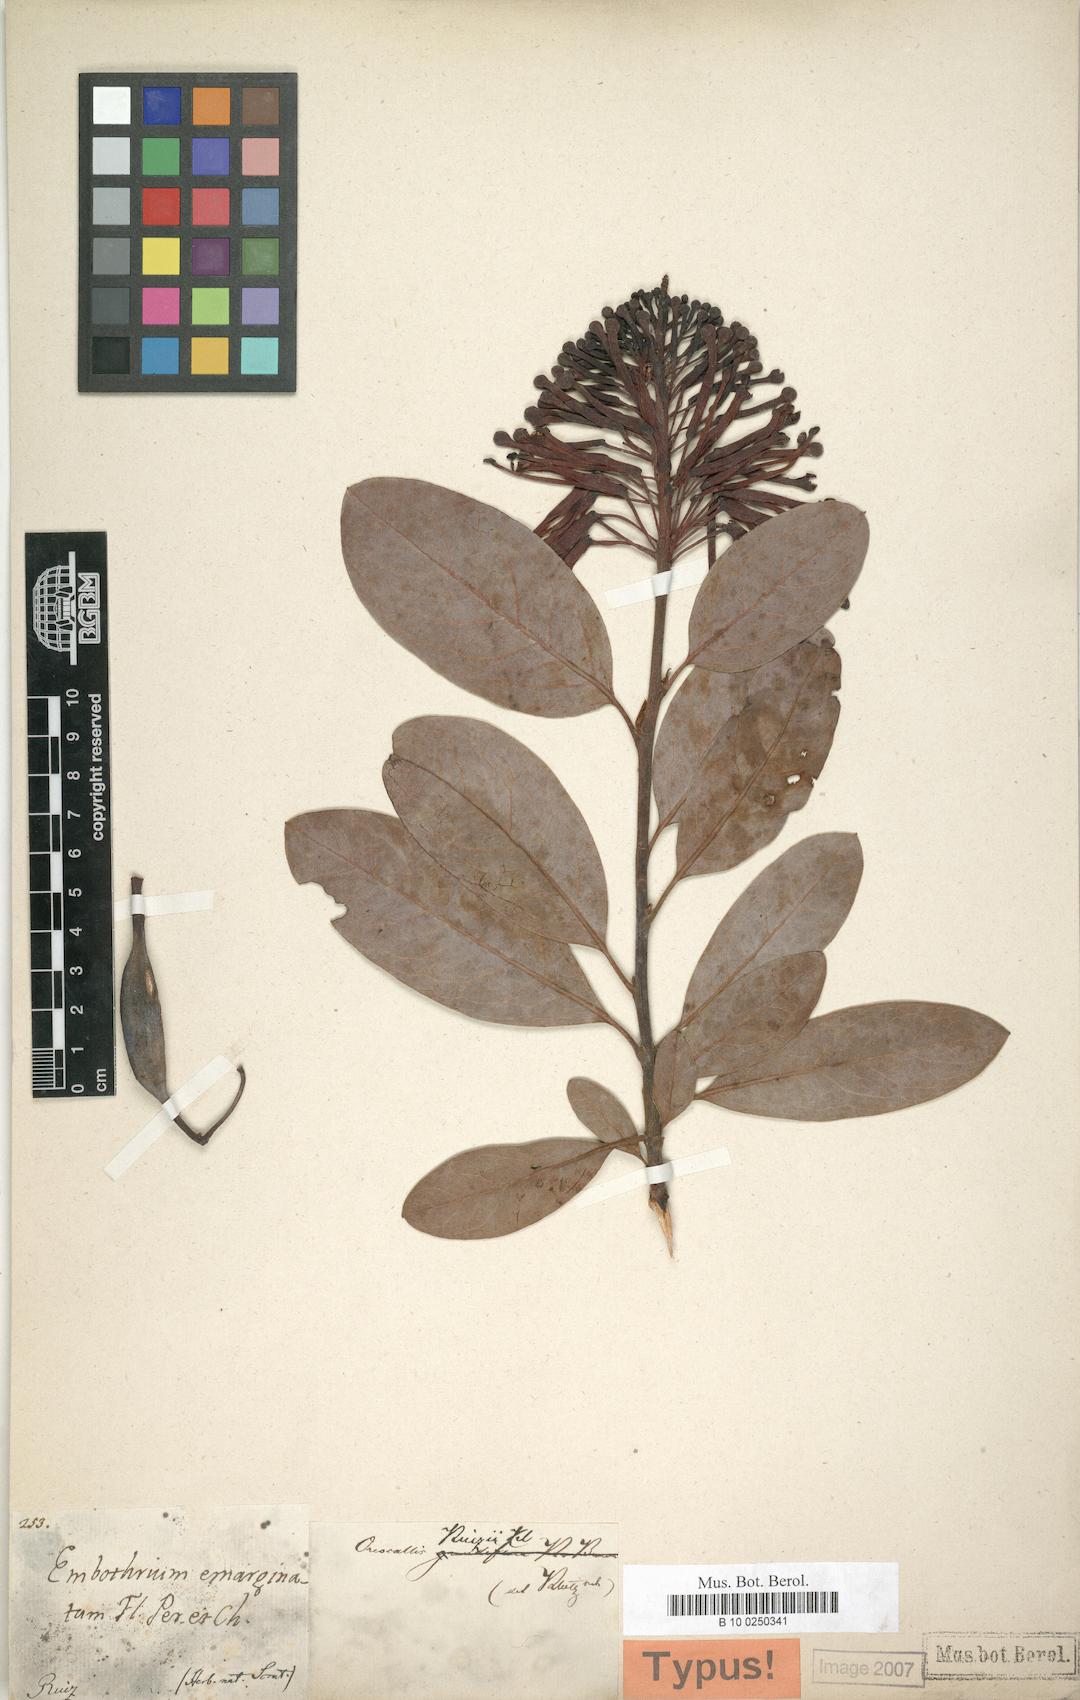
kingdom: Plantae
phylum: Tracheophyta
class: Magnoliopsida
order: Proteales
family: Proteaceae
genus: Oreocallis
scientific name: Oreocallis grandiflora
